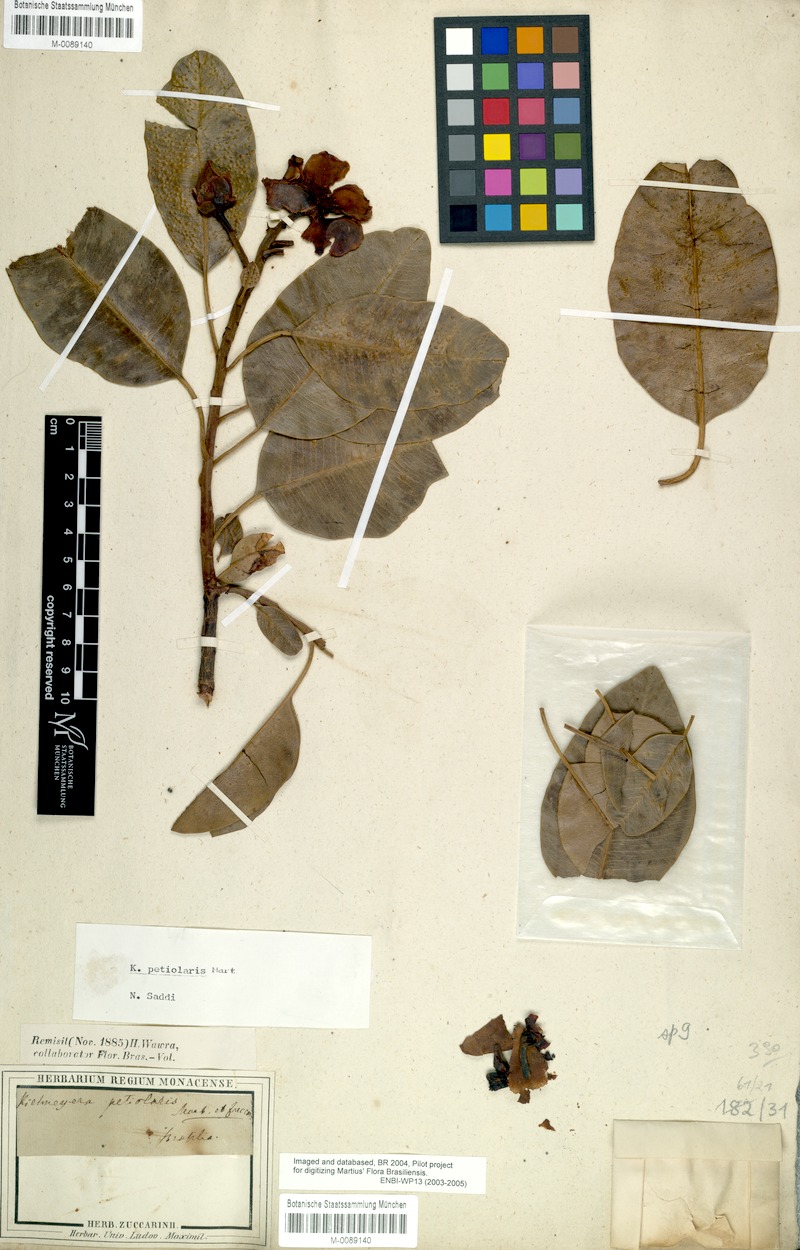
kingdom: Plantae
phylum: Tracheophyta
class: Magnoliopsida
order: Malpighiales
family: Calophyllaceae
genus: Kielmeyera
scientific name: Kielmeyera petiolaris
